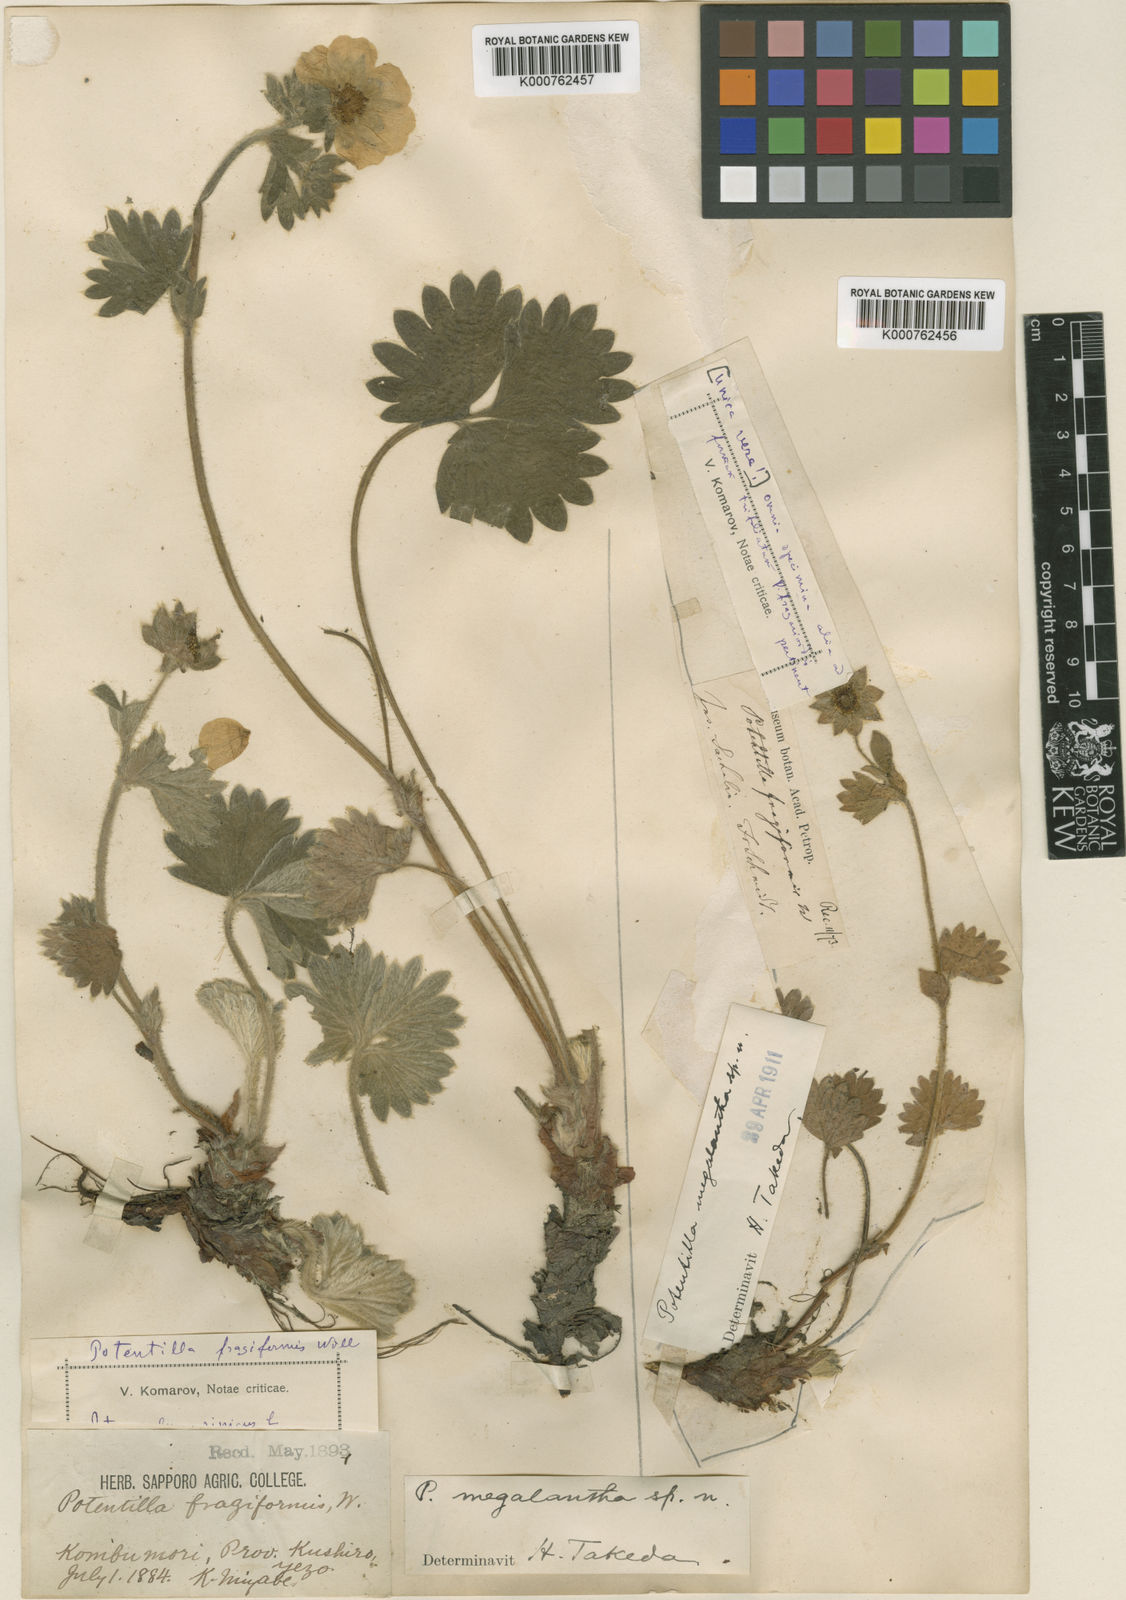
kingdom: Plantae
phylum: Tracheophyta
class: Magnoliopsida
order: Rosales
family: Rosaceae
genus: Potentilla
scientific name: Potentilla megalantha
